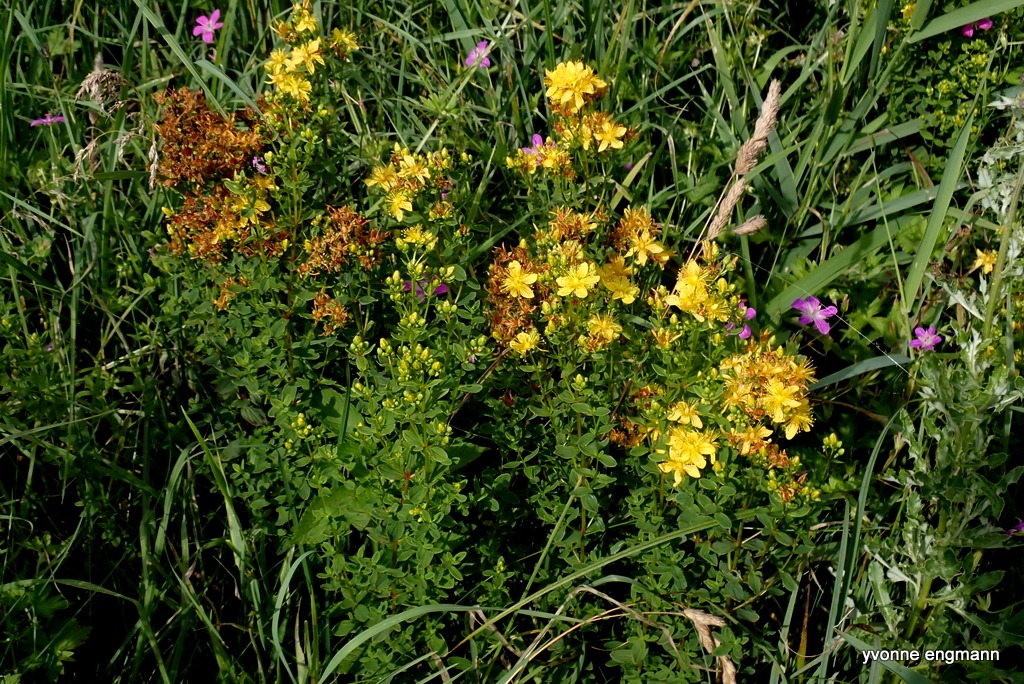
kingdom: Plantae
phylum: Tracheophyta
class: Magnoliopsida
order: Malpighiales
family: Hypericaceae
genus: Hypericum
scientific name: Hypericum maculatum
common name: Kantet perikon
